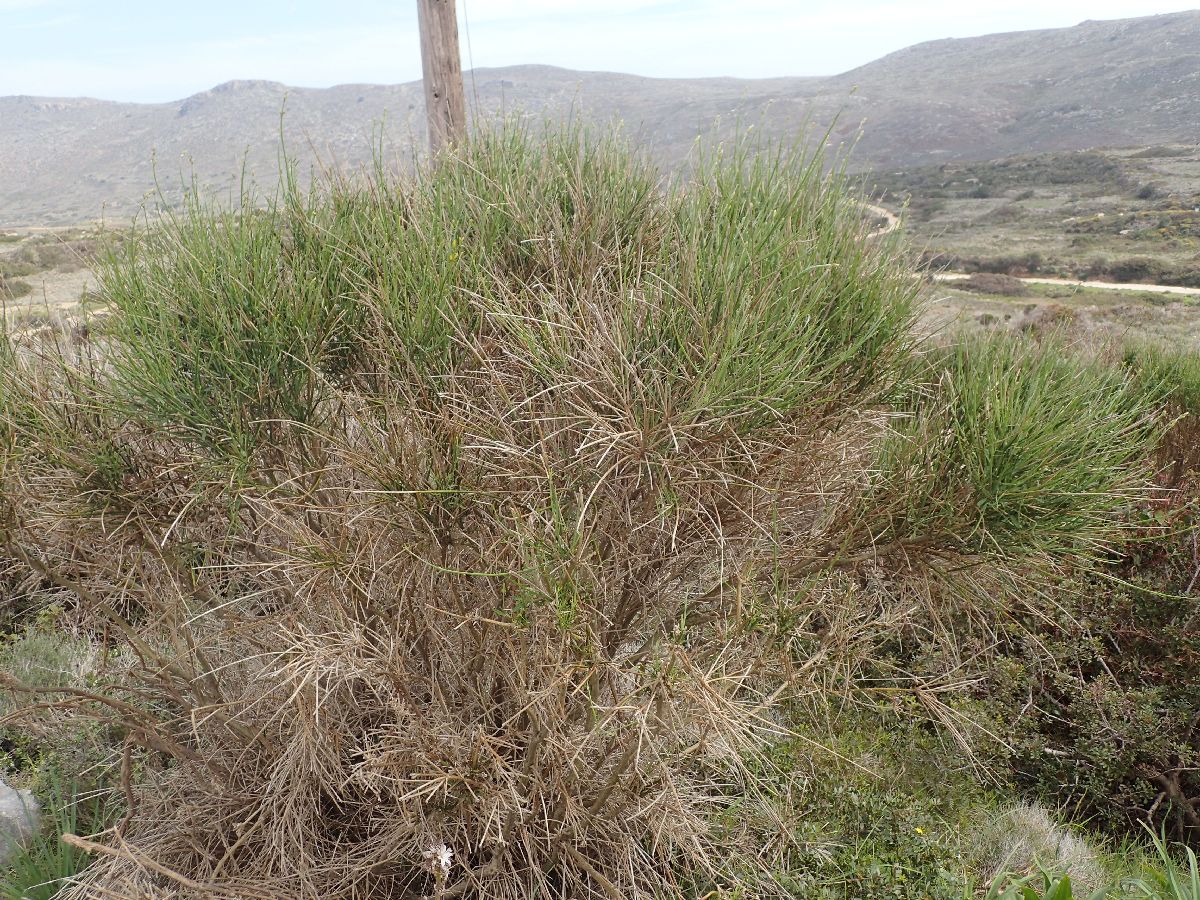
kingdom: Plantae
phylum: Tracheophyta
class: Magnoliopsida
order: Fabales
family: Fabaceae
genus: Spartium
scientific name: Spartium junceum
